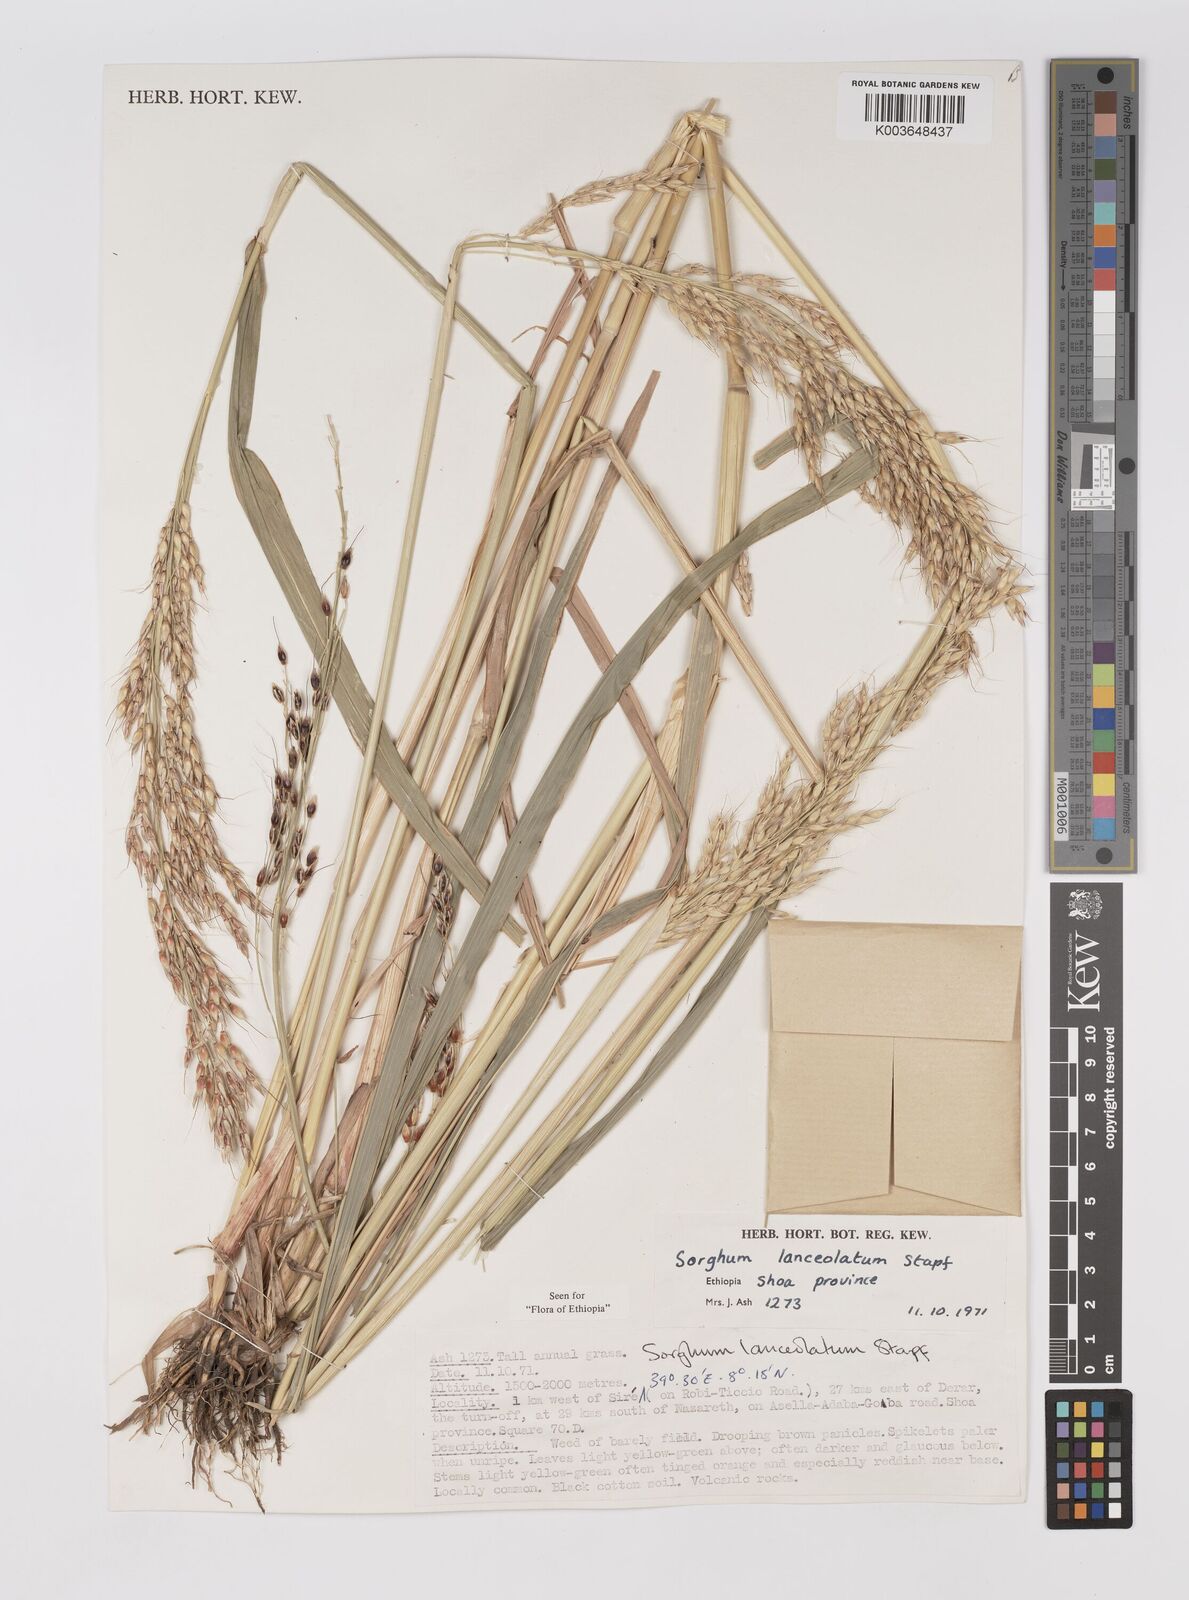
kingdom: Plantae
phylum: Tracheophyta
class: Liliopsida
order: Poales
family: Poaceae
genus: Sorghum
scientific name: Sorghum arundinaceum
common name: Sorghum
